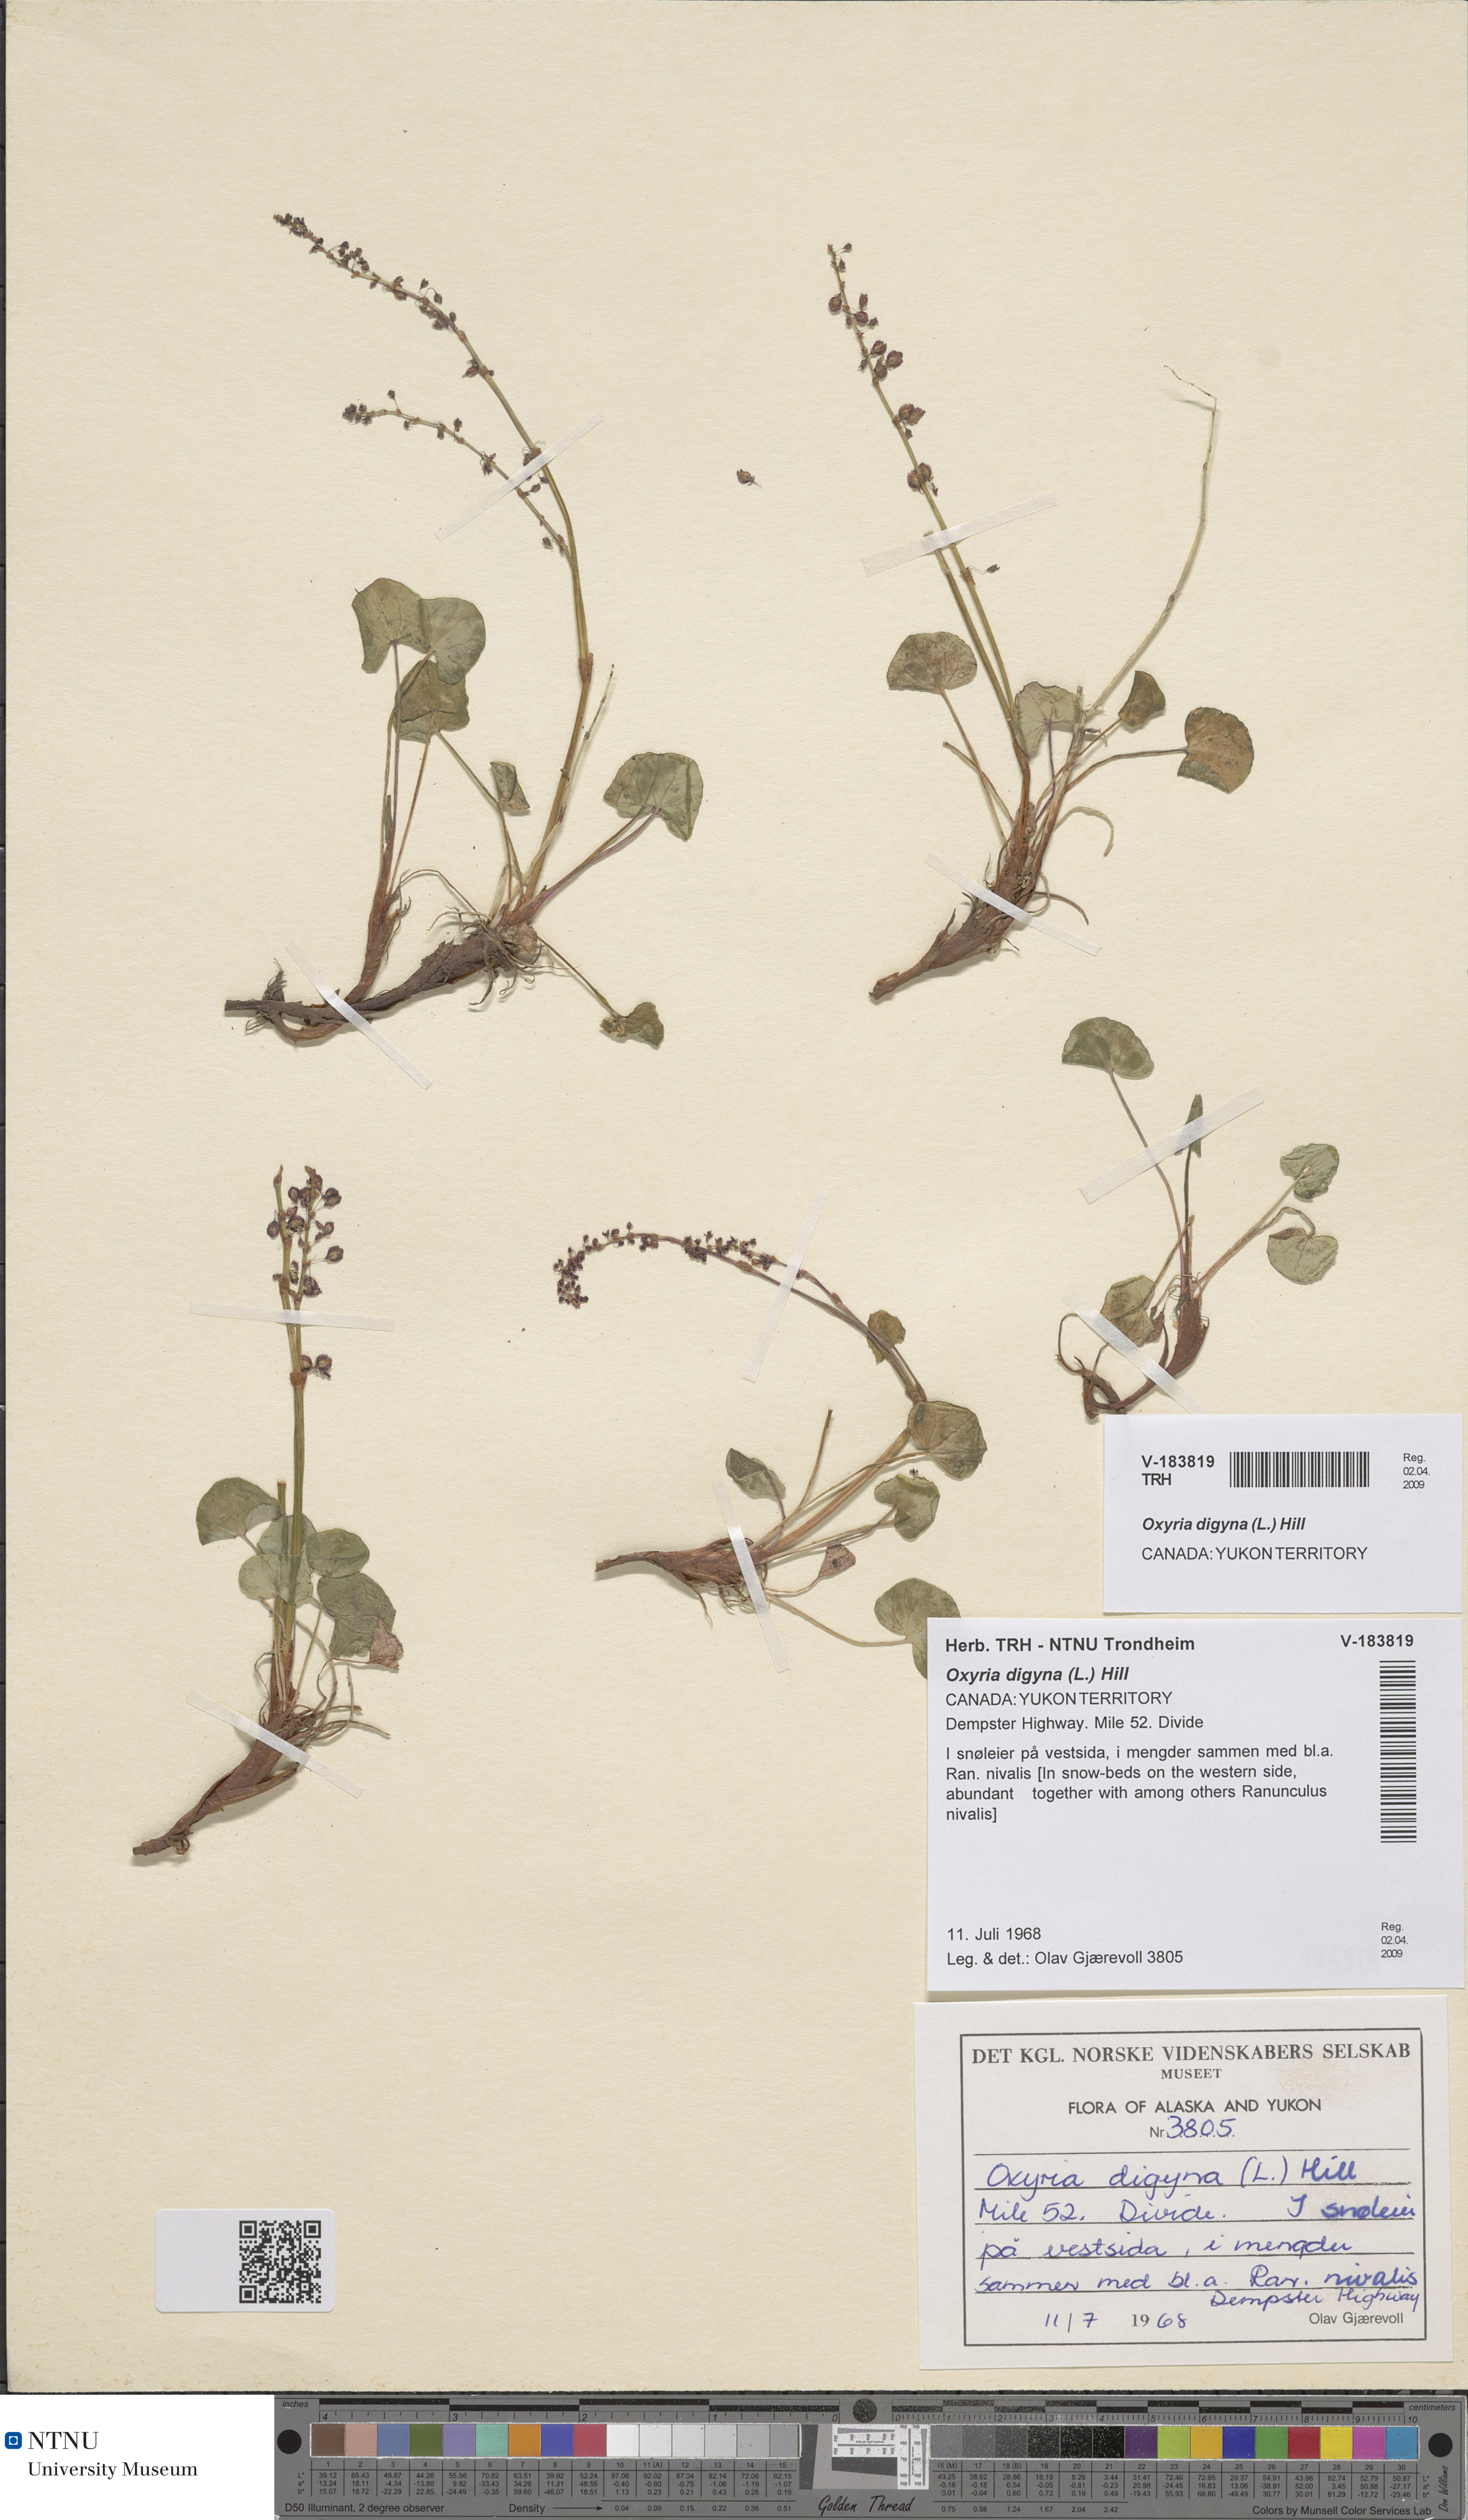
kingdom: Plantae
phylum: Tracheophyta
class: Magnoliopsida
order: Caryophyllales
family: Polygonaceae
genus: Oxyria
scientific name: Oxyria digyna
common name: Alpine mountain-sorrel
